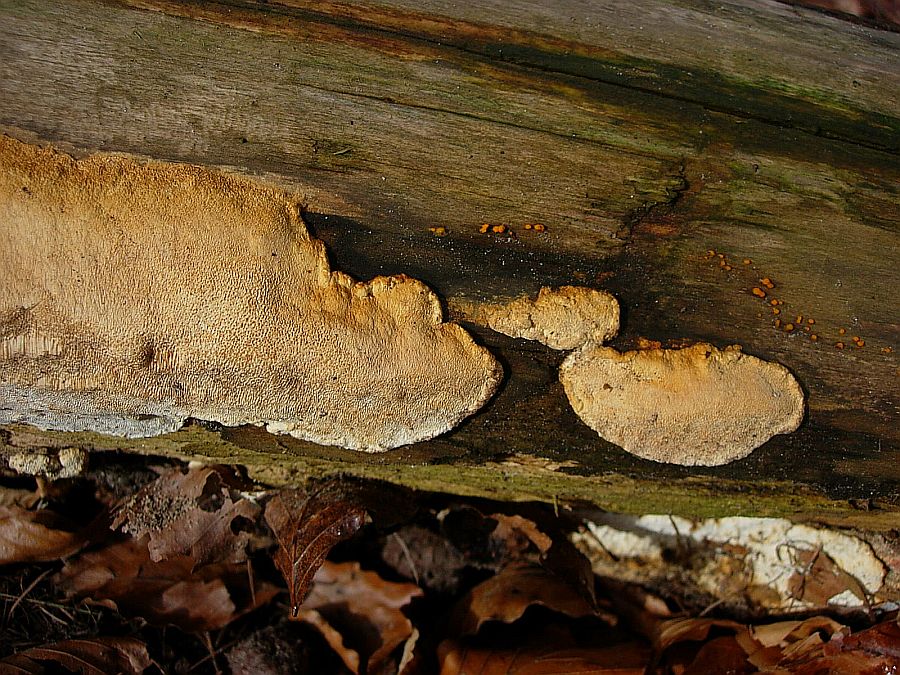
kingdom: Fungi
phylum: Basidiomycota
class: Agaricomycetes
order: Polyporales
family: Fomitopsidaceae
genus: Neoantrodia
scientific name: Neoantrodia serialis
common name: række-sejporesvamp
